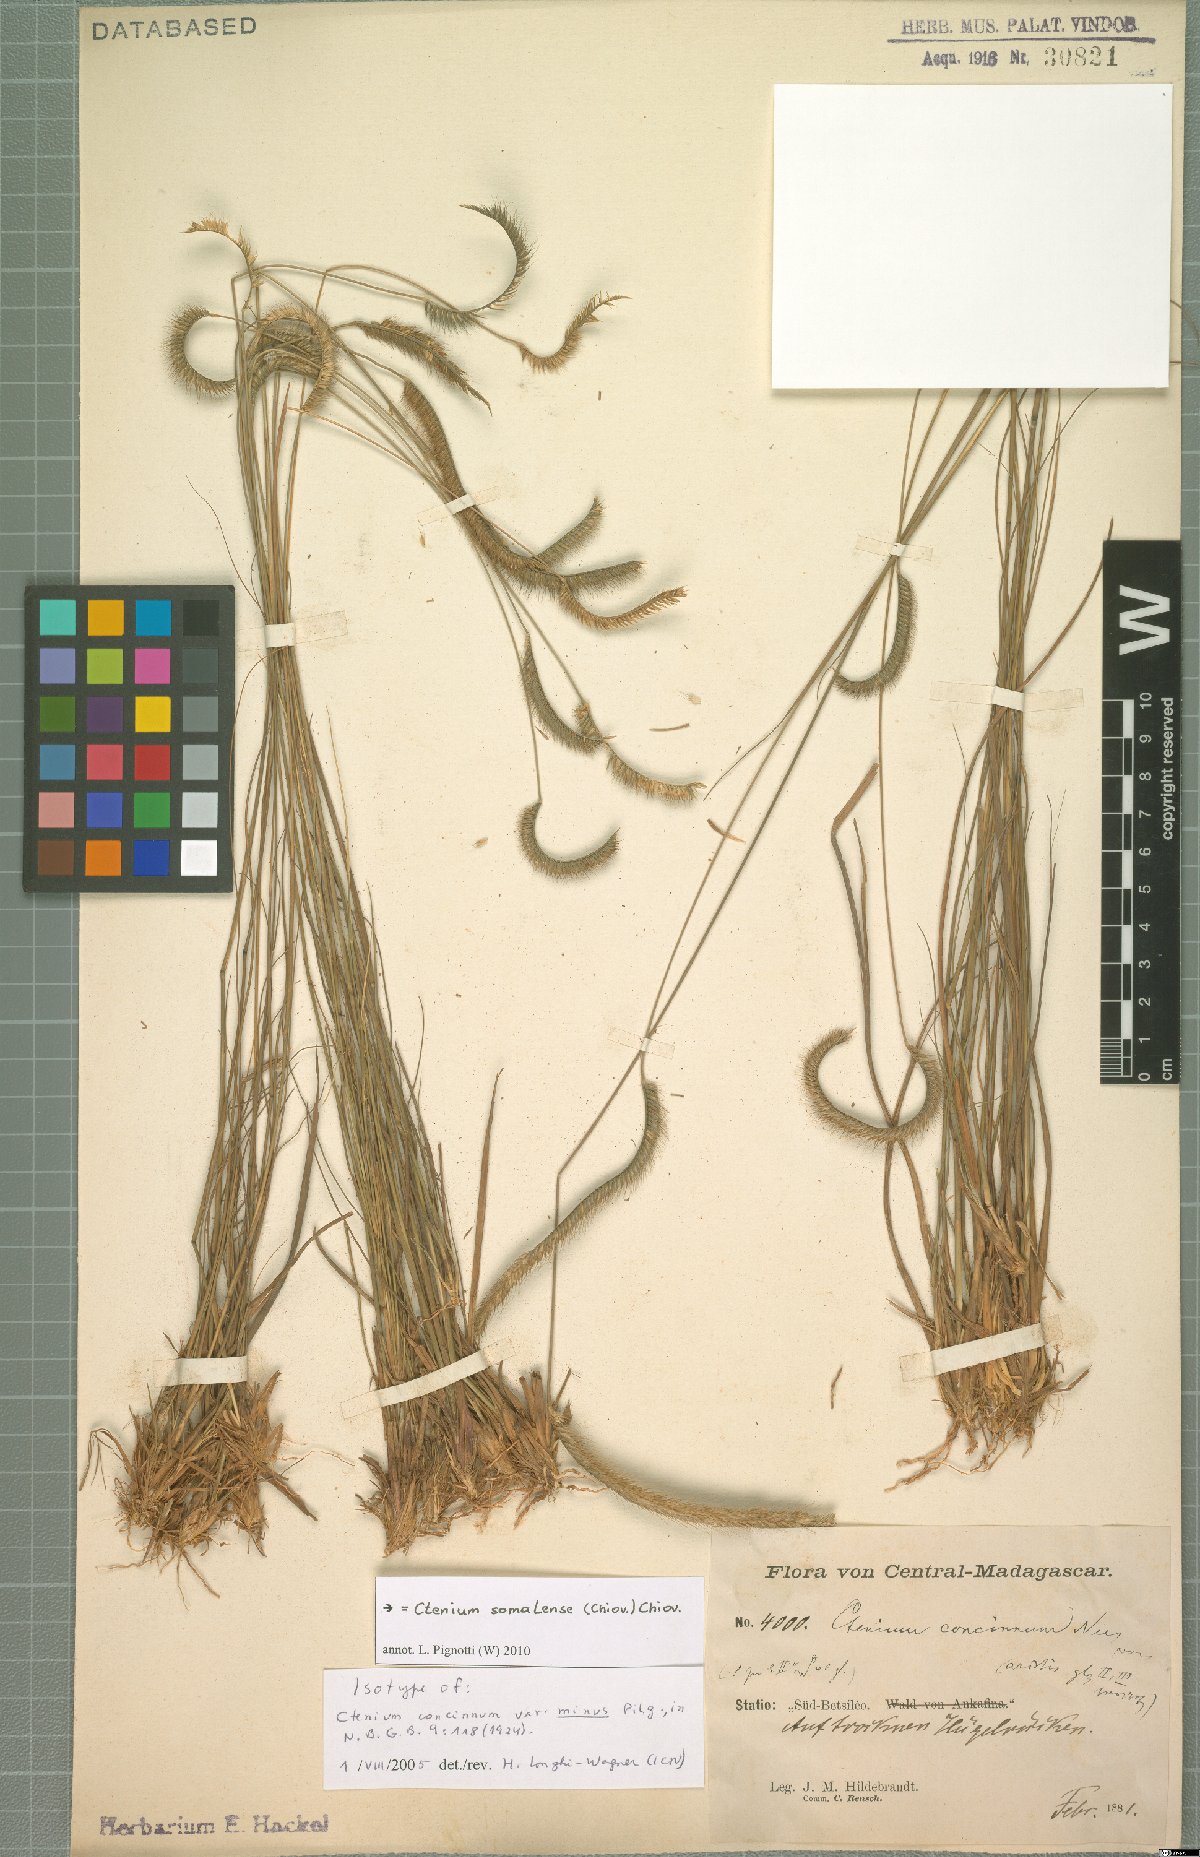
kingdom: Plantae
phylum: Tracheophyta
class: Liliopsida
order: Poales
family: Poaceae
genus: Ctenium
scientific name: Ctenium concinnum
